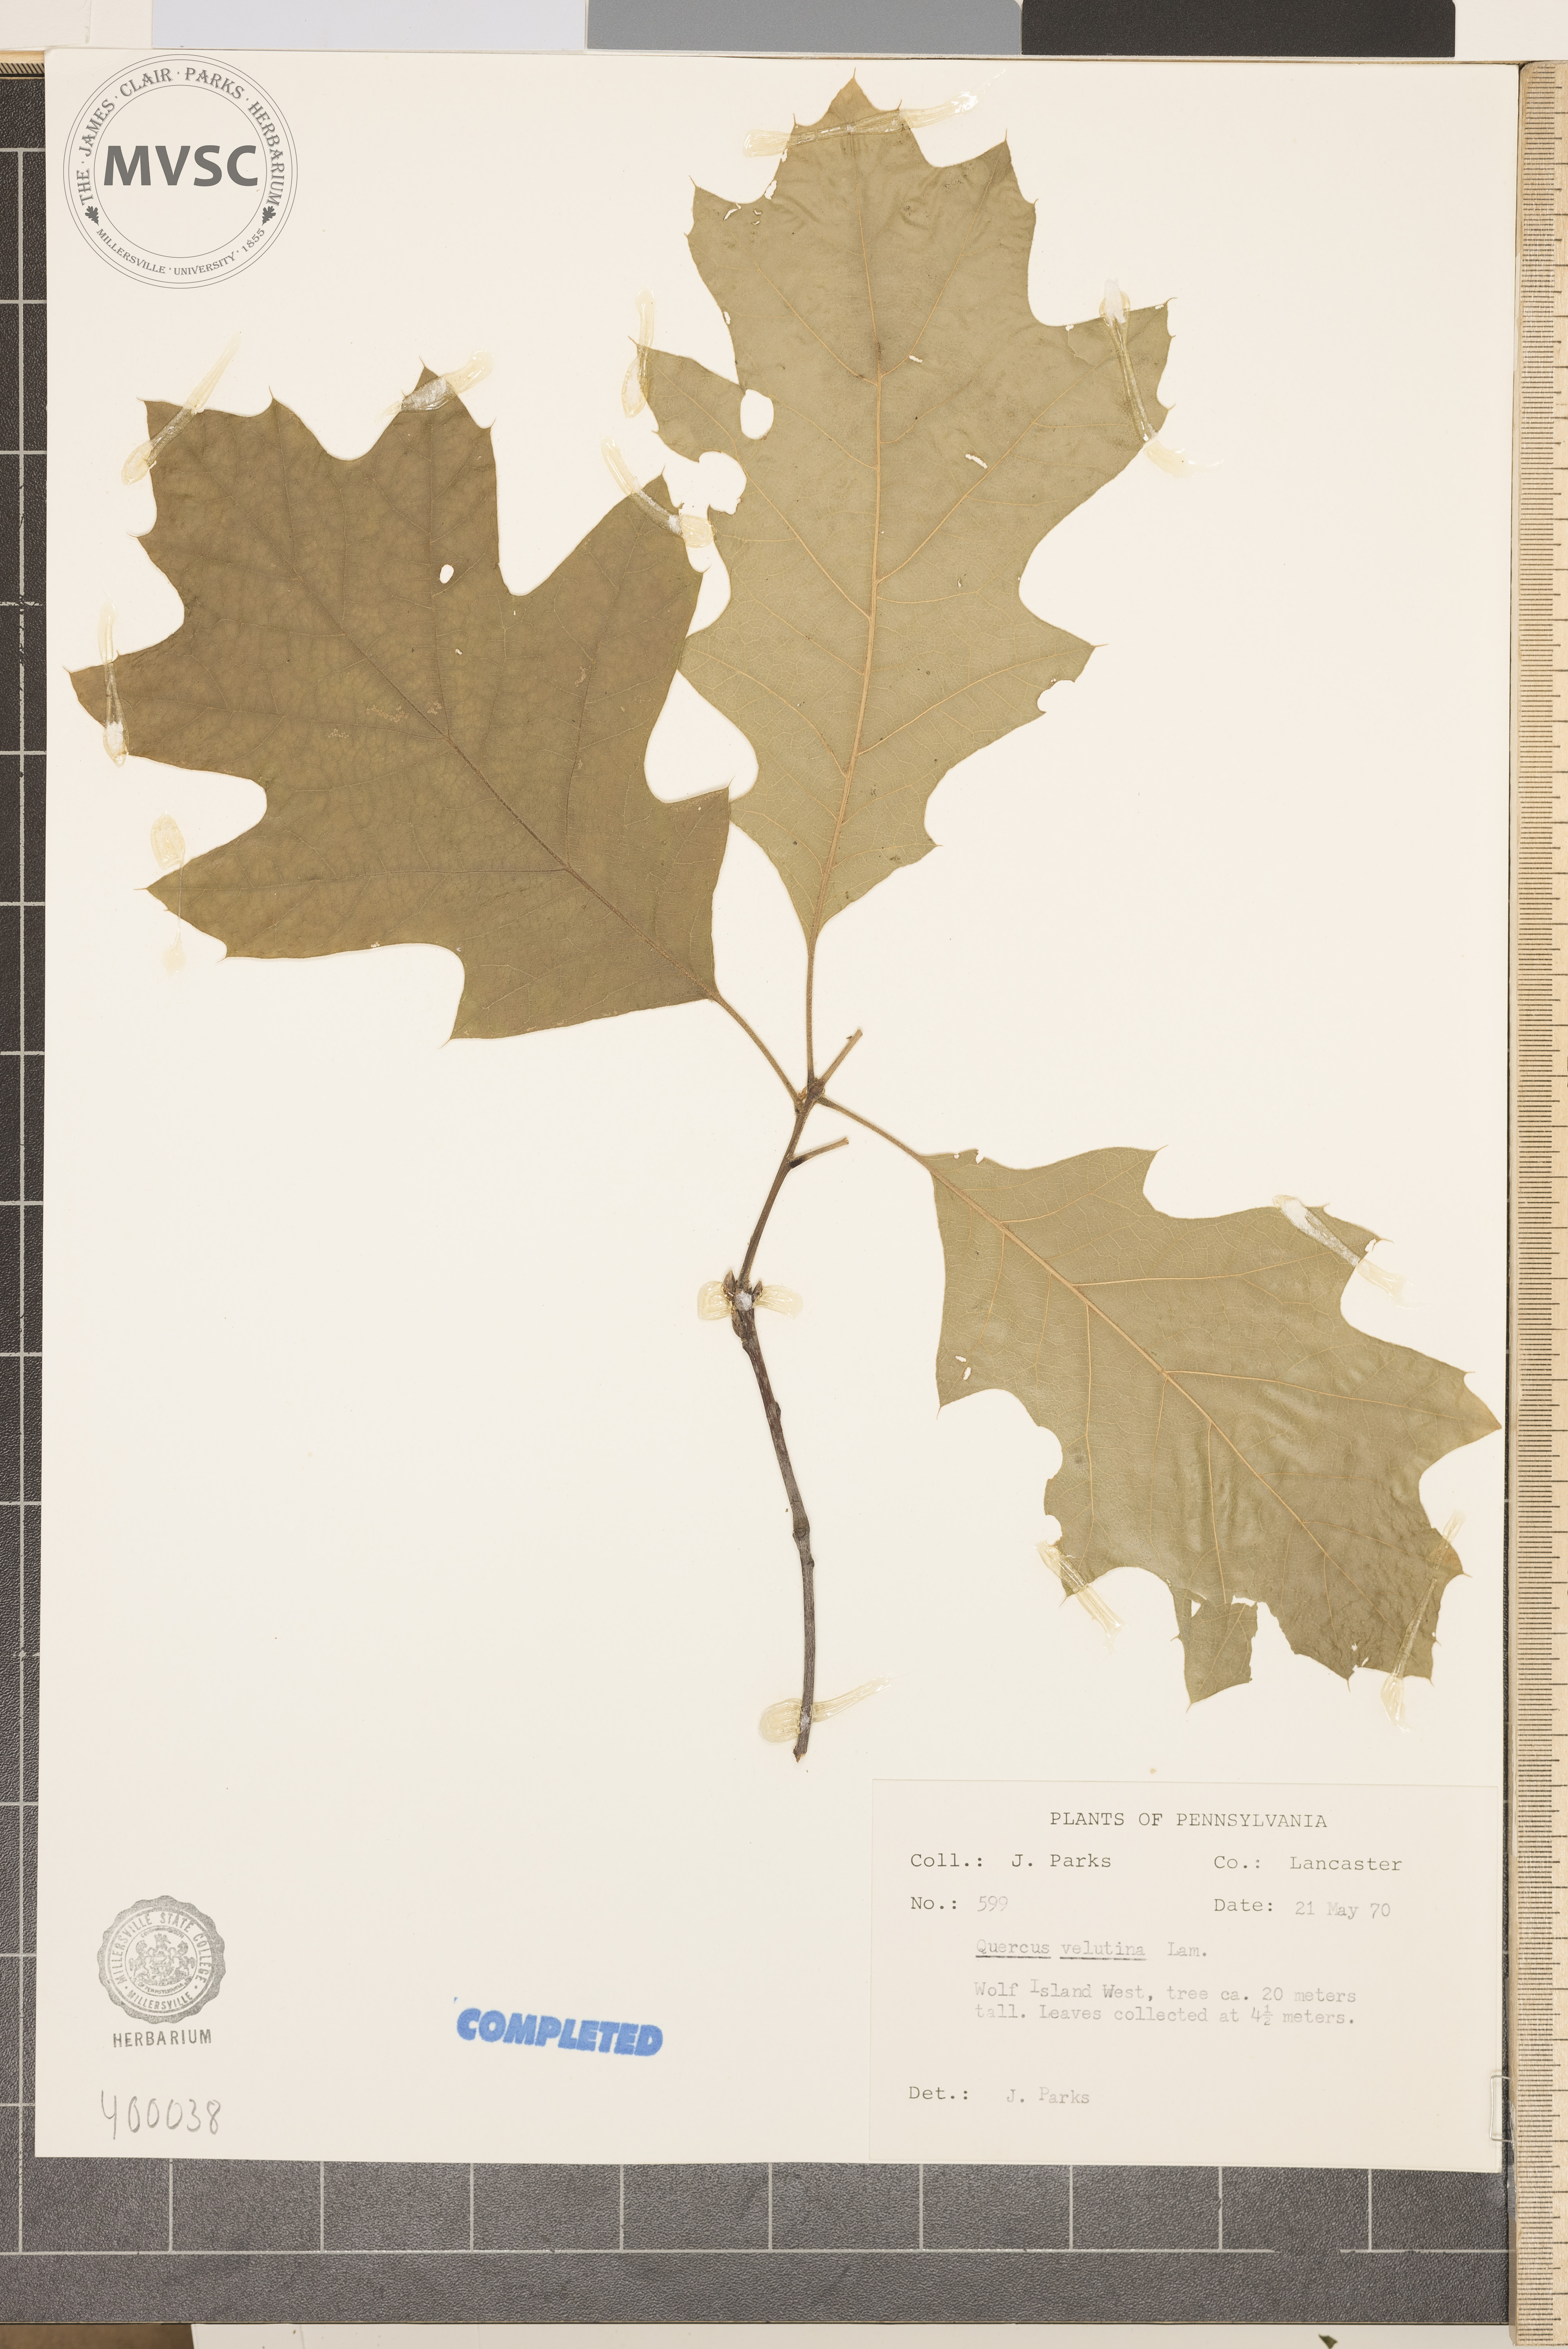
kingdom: Plantae
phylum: Tracheophyta
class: Magnoliopsida
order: Fagales
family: Fagaceae
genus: Quercus
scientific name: Quercus velutina
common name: black oak
